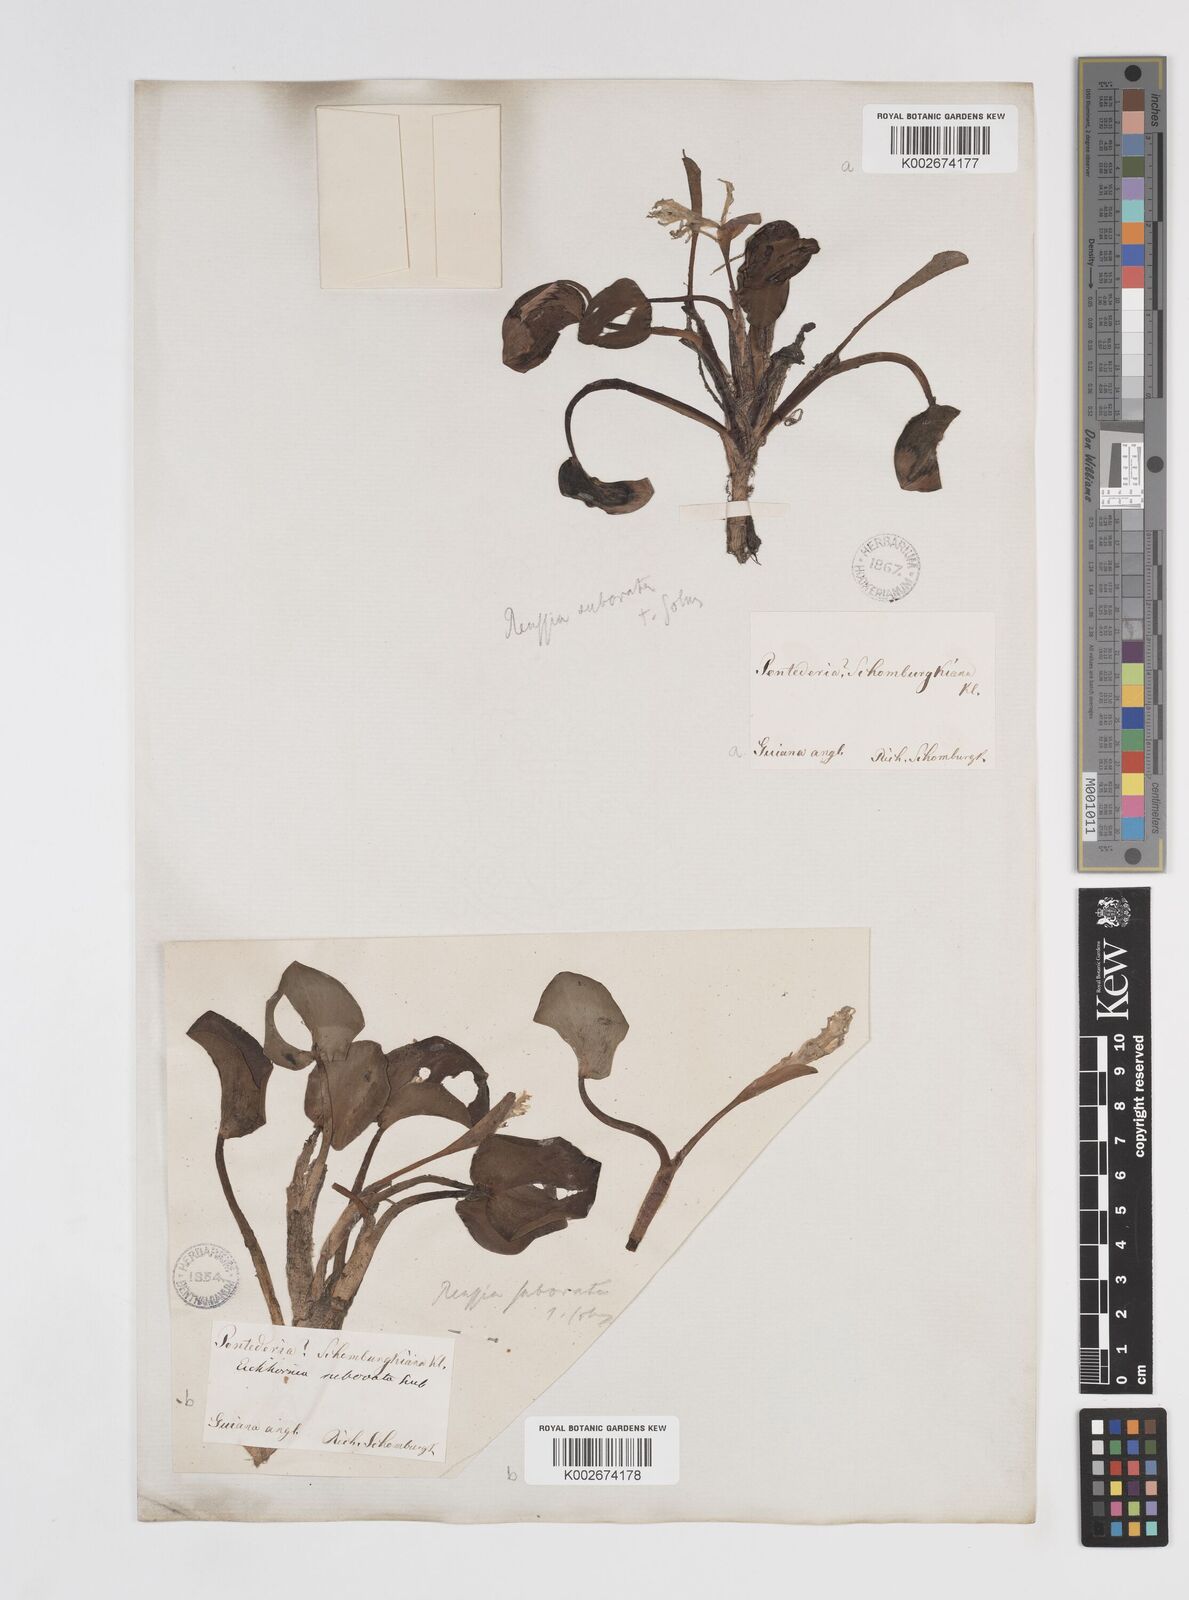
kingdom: Plantae
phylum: Tracheophyta
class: Liliopsida
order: Commelinales
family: Pontederiaceae
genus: Pontederia
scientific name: Pontederia subovata
